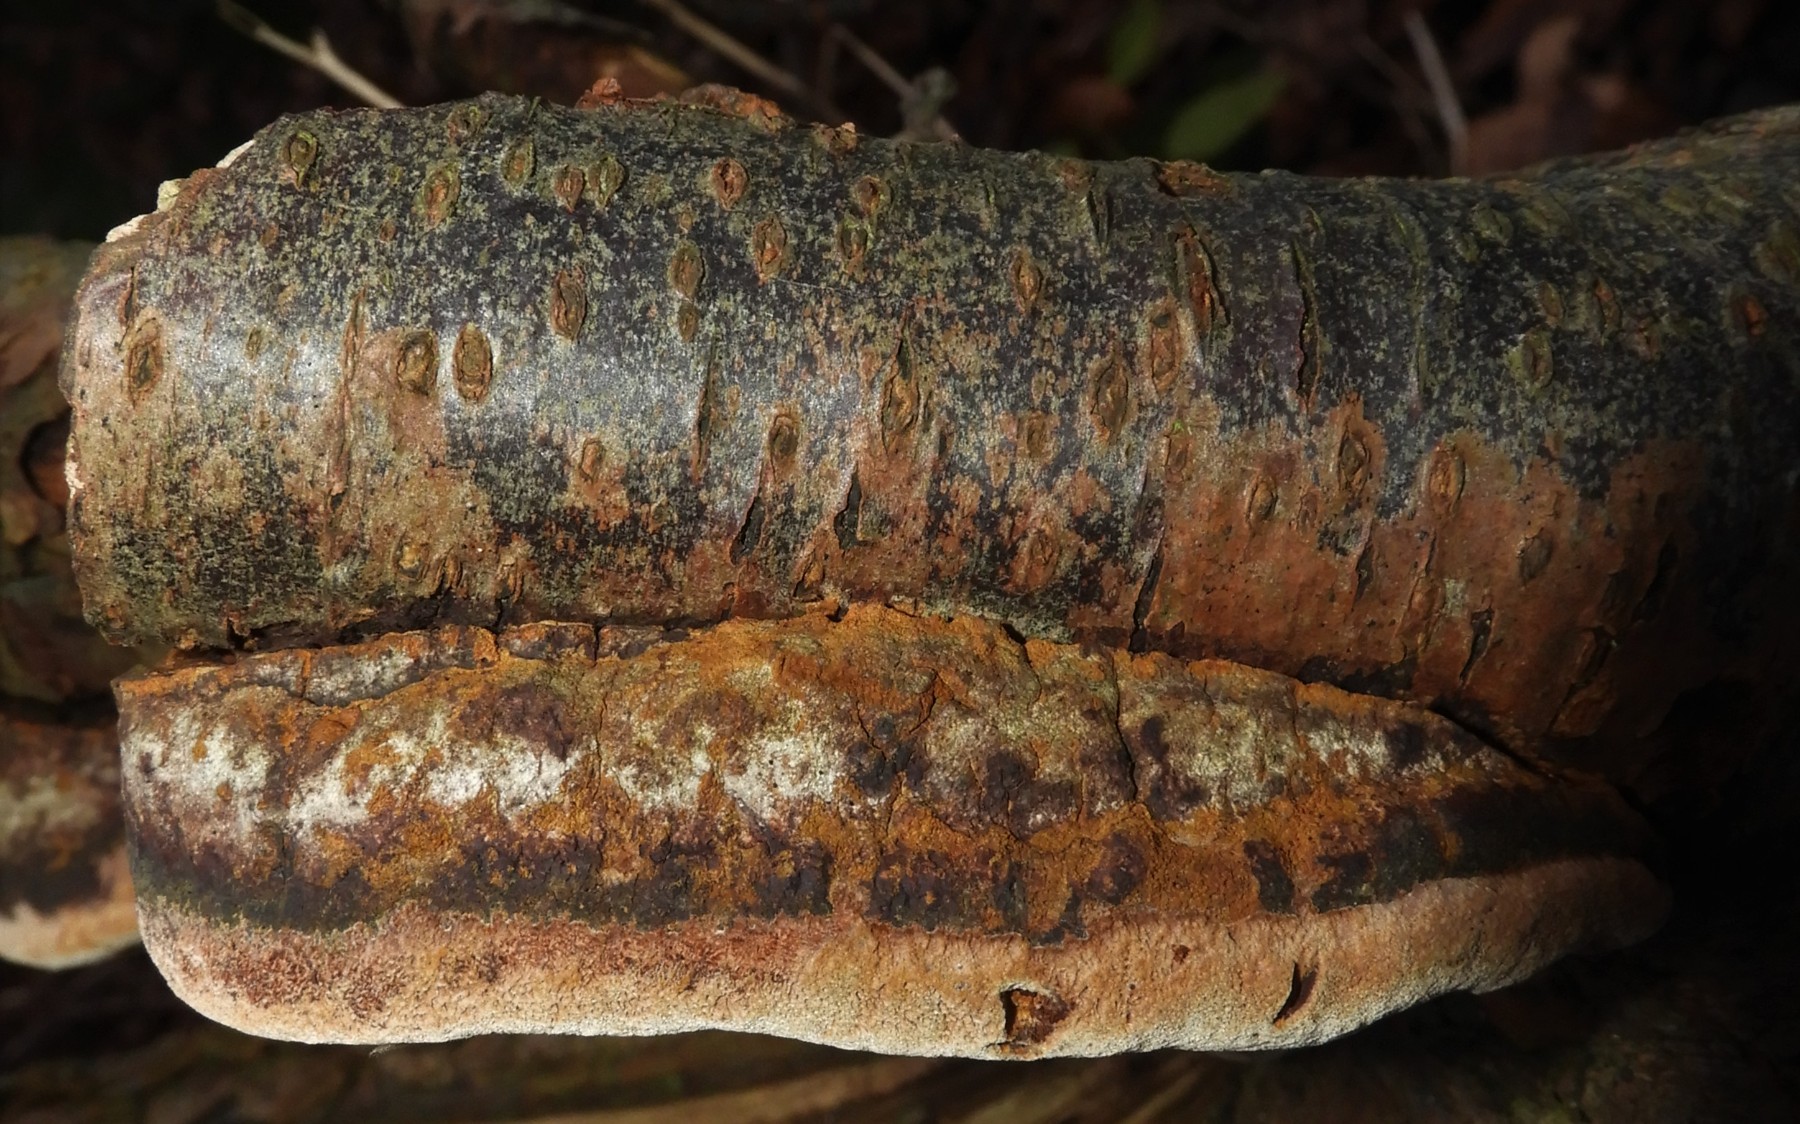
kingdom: Fungi
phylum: Basidiomycota
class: Agaricomycetes
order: Hymenochaetales
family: Hymenochaetaceae
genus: Phellinus
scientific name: Phellinus pomaceus
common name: blomme-ildporesvamp
